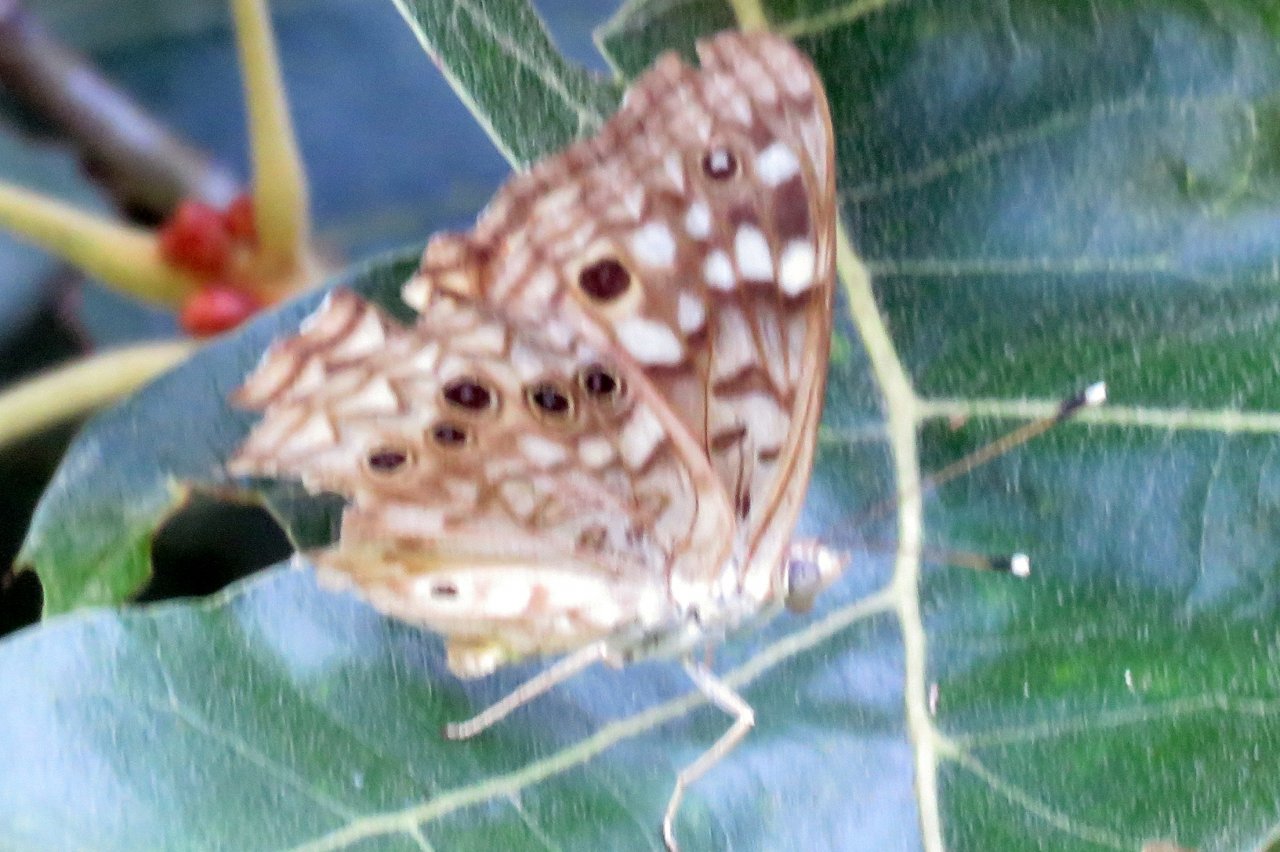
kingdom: Animalia
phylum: Arthropoda
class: Insecta
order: Lepidoptera
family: Nymphalidae
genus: Asterocampa
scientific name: Asterocampa celtis
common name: Hackberry Emperor
